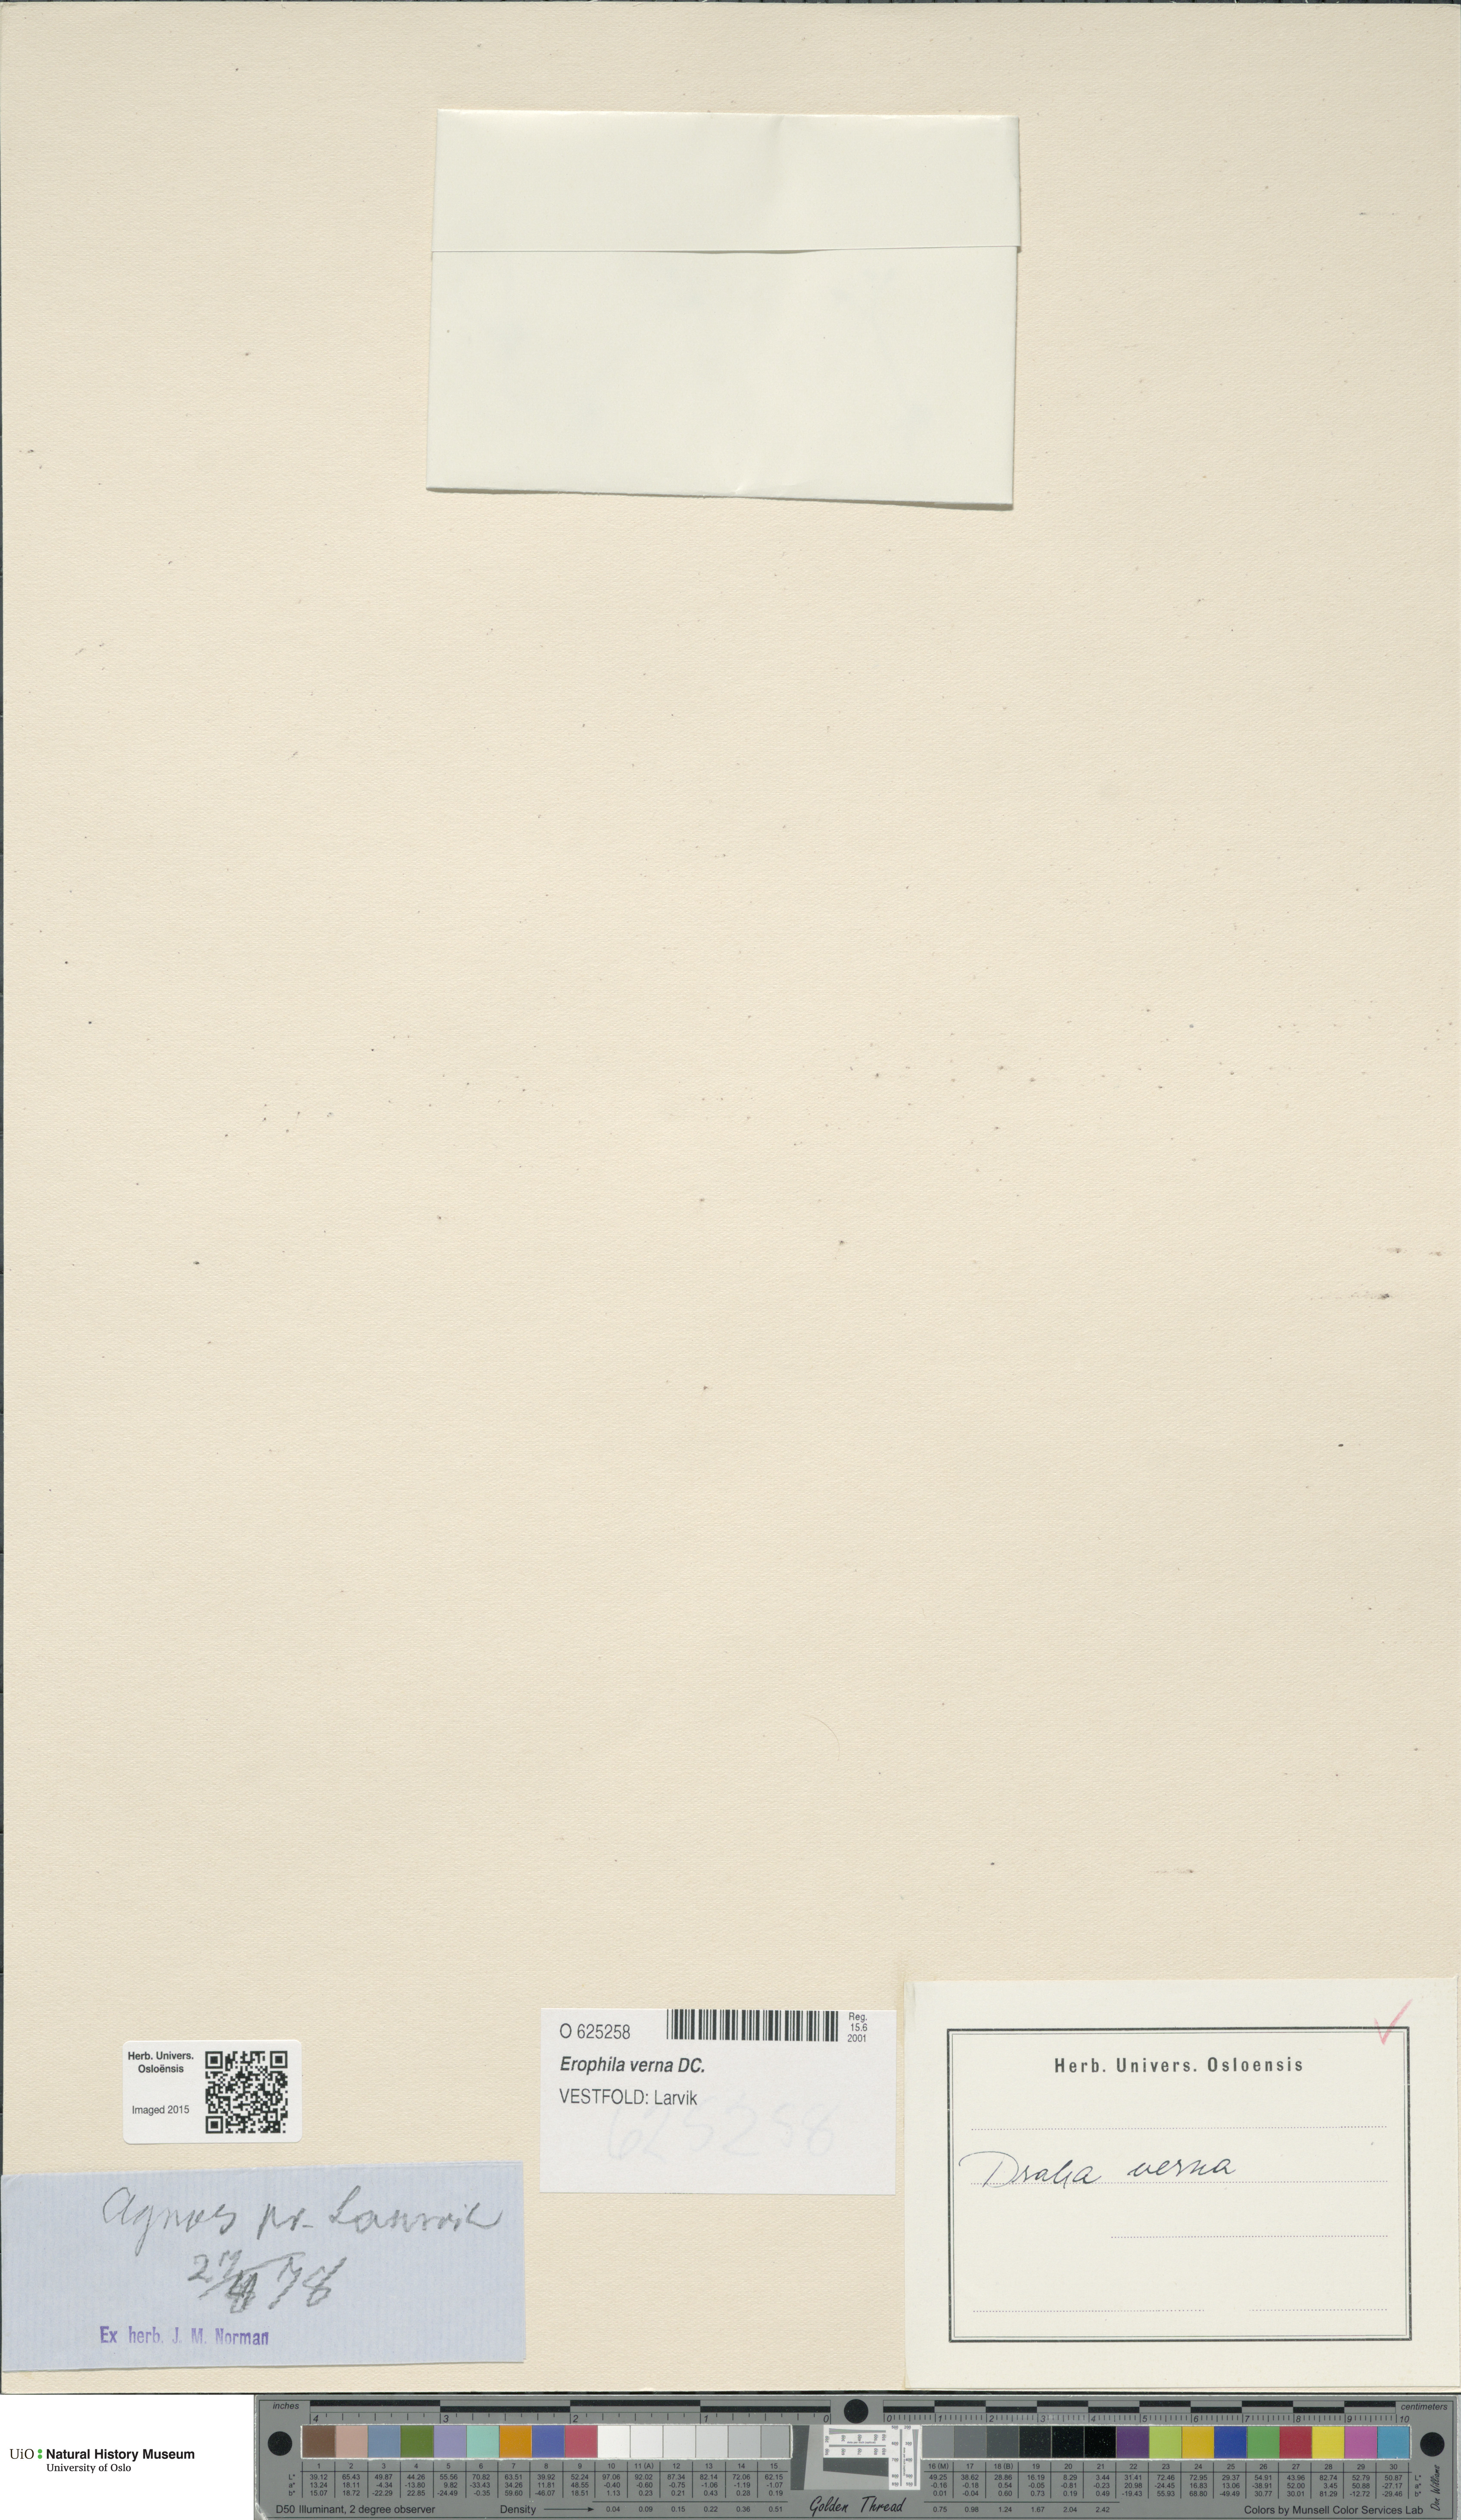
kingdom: Plantae
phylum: Tracheophyta
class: Magnoliopsida
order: Brassicales
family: Brassicaceae
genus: Draba
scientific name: Draba verna
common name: Spring draba
